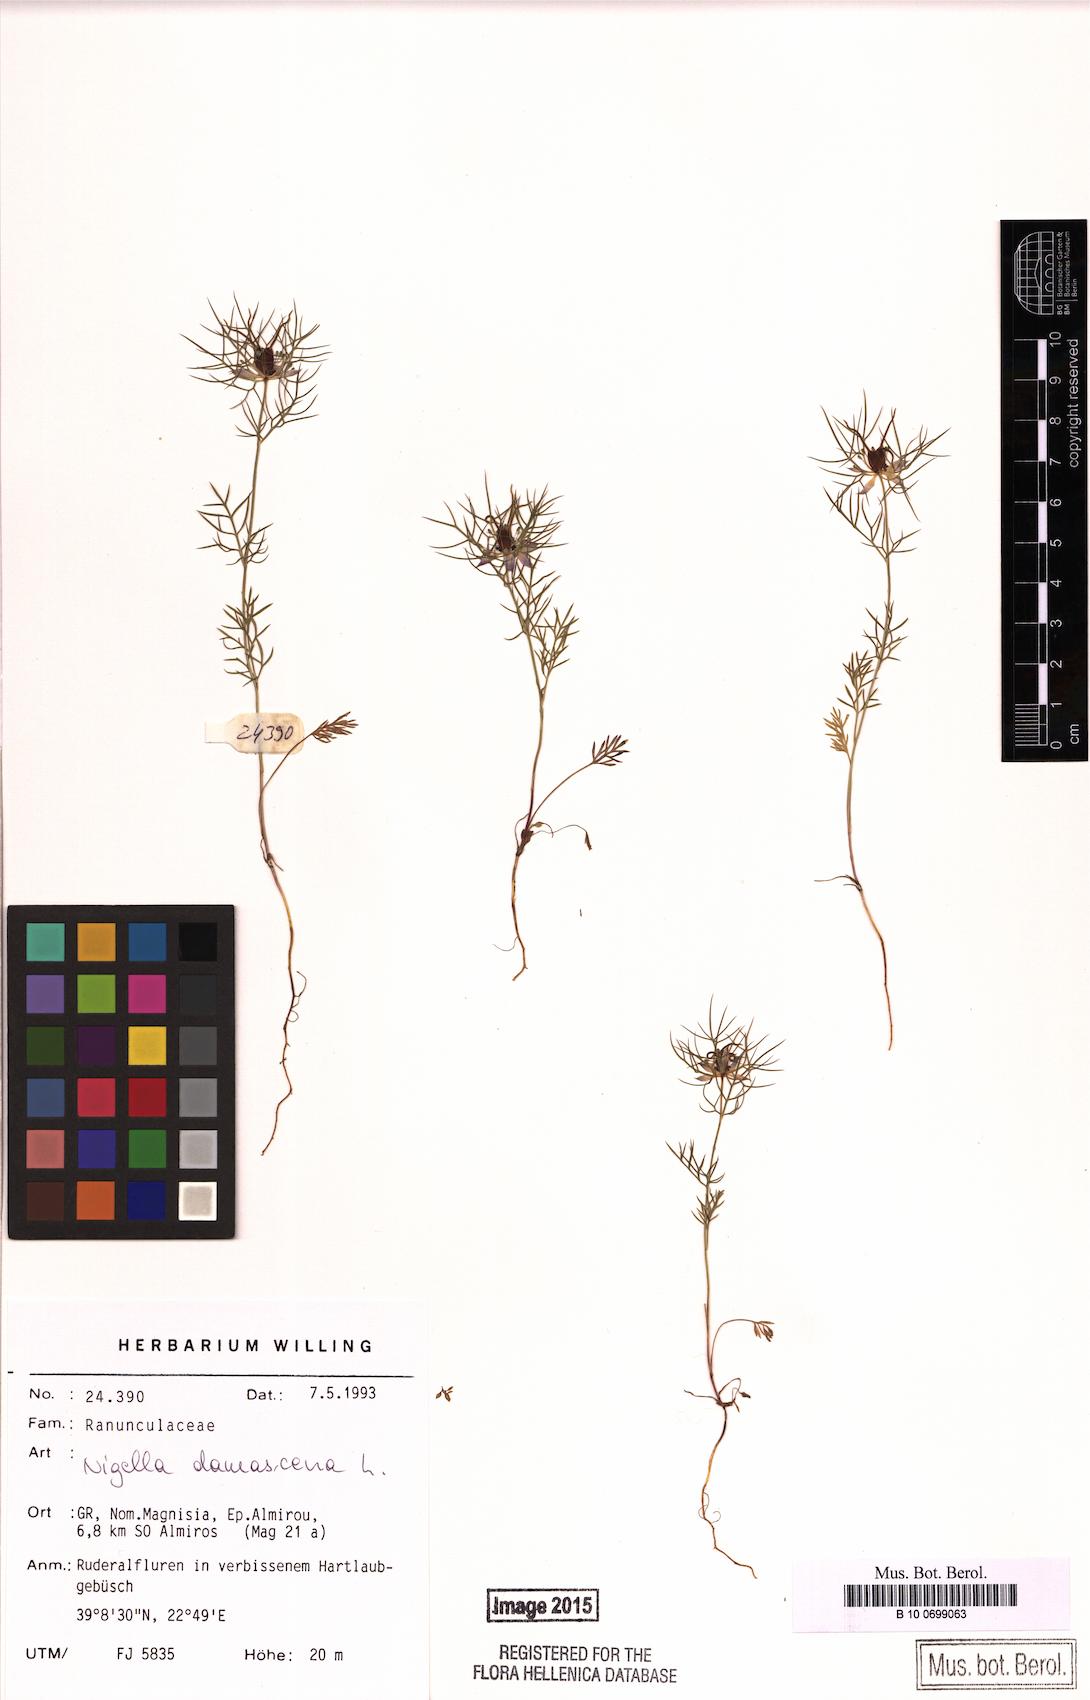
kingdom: Plantae
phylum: Tracheophyta
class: Magnoliopsida
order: Ranunculales
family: Ranunculaceae
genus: Nigella
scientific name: Nigella damascena
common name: Love-in-a-mist
